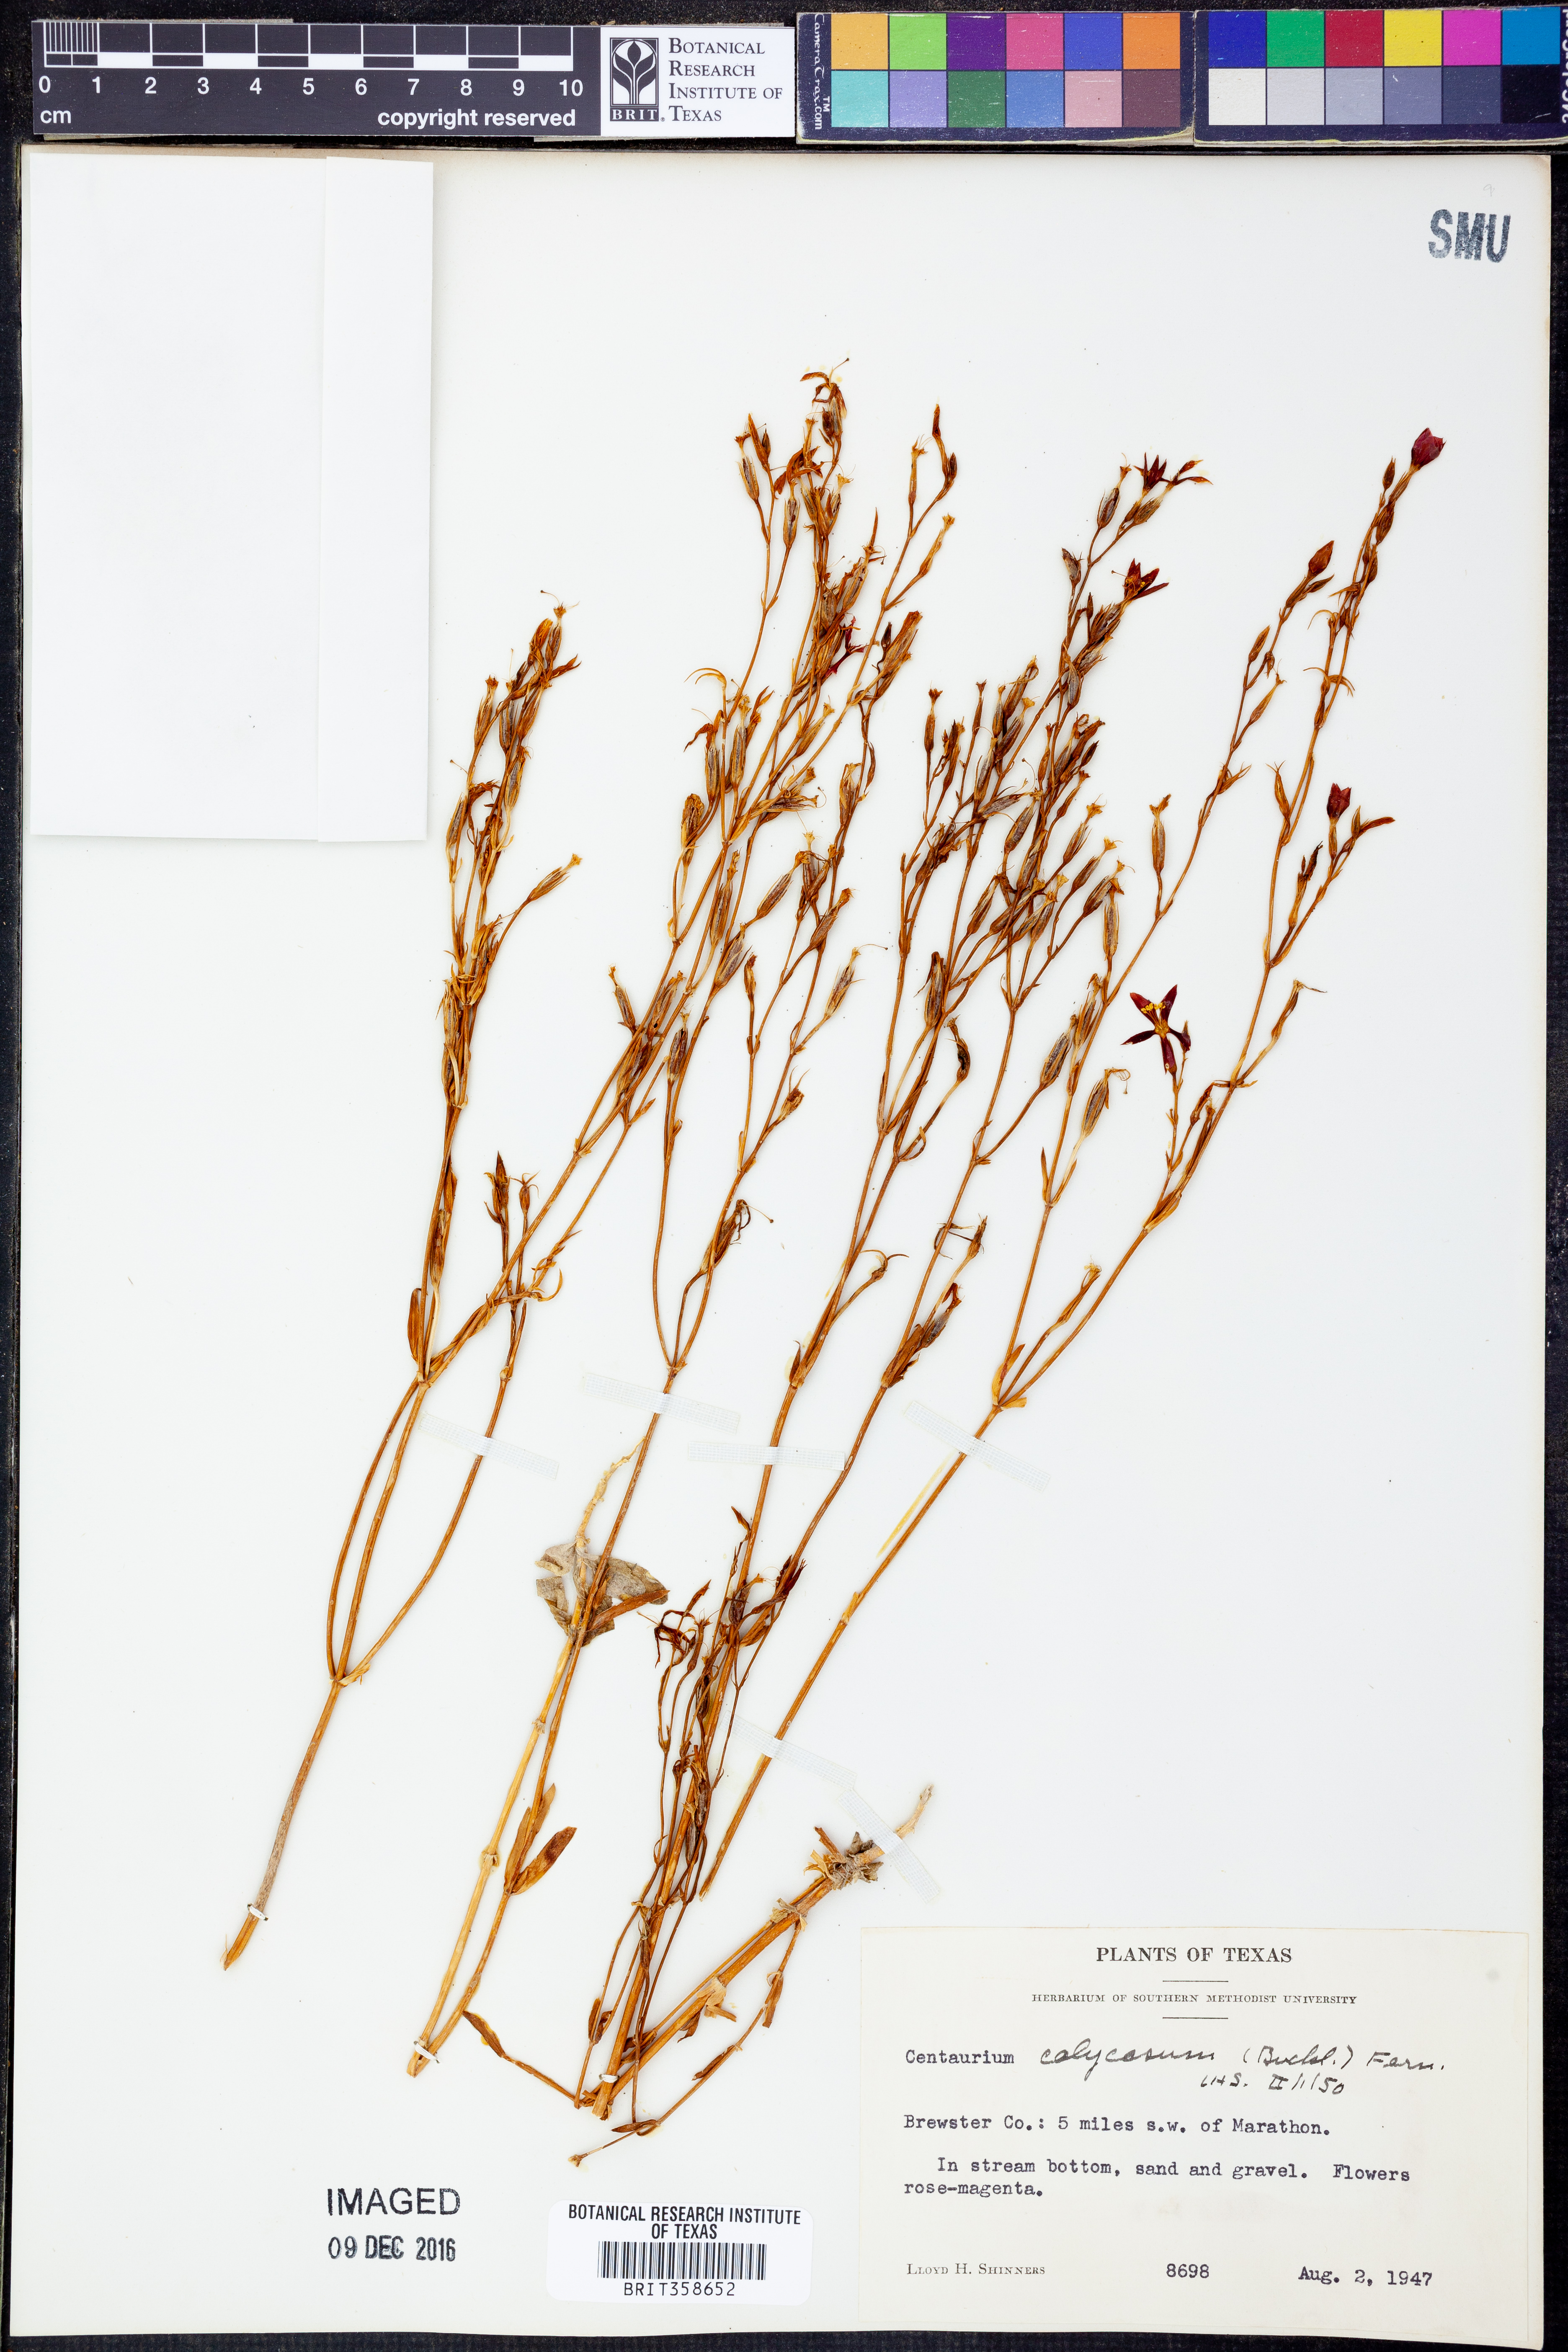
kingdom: Plantae
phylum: Tracheophyta
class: Magnoliopsida
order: Gentianales
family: Gentianaceae
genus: Zeltnera
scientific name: Zeltnera calycosa
